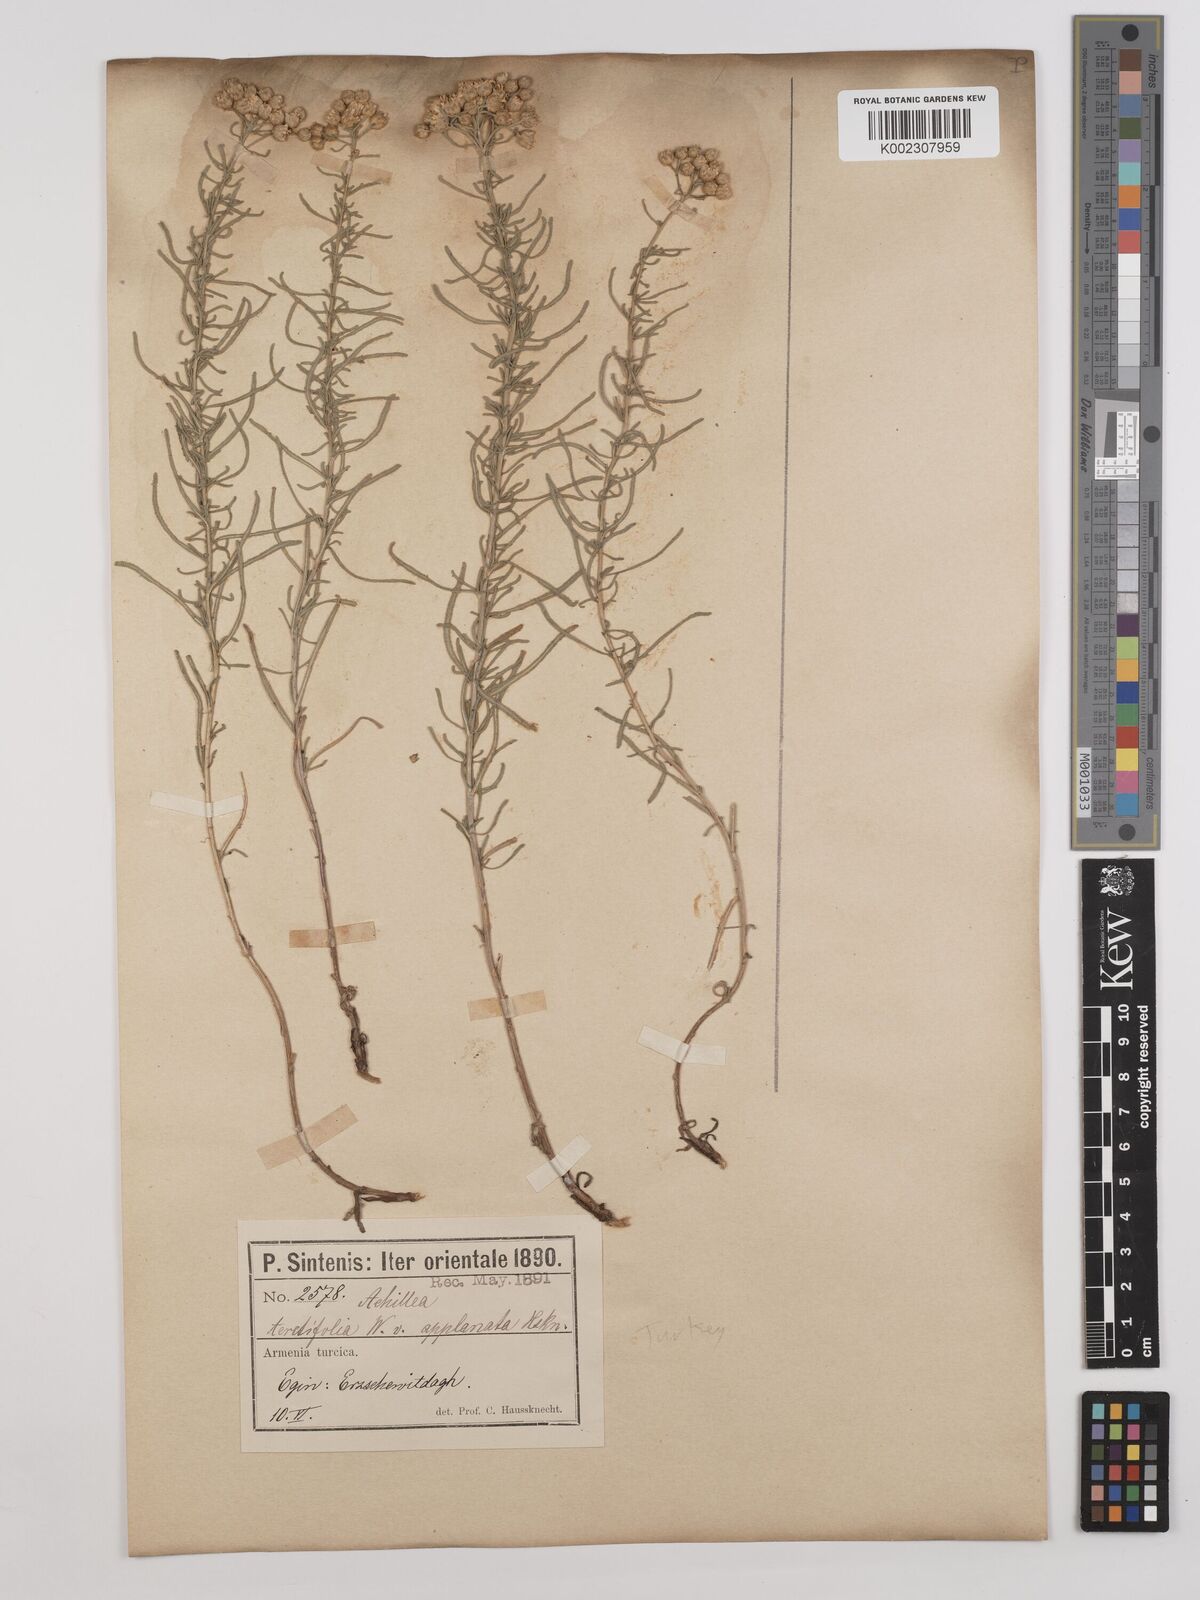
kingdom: Plantae
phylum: Tracheophyta
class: Magnoliopsida
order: Asterales
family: Asteraceae
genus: Achillea
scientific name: Achillea wilhelmsii
